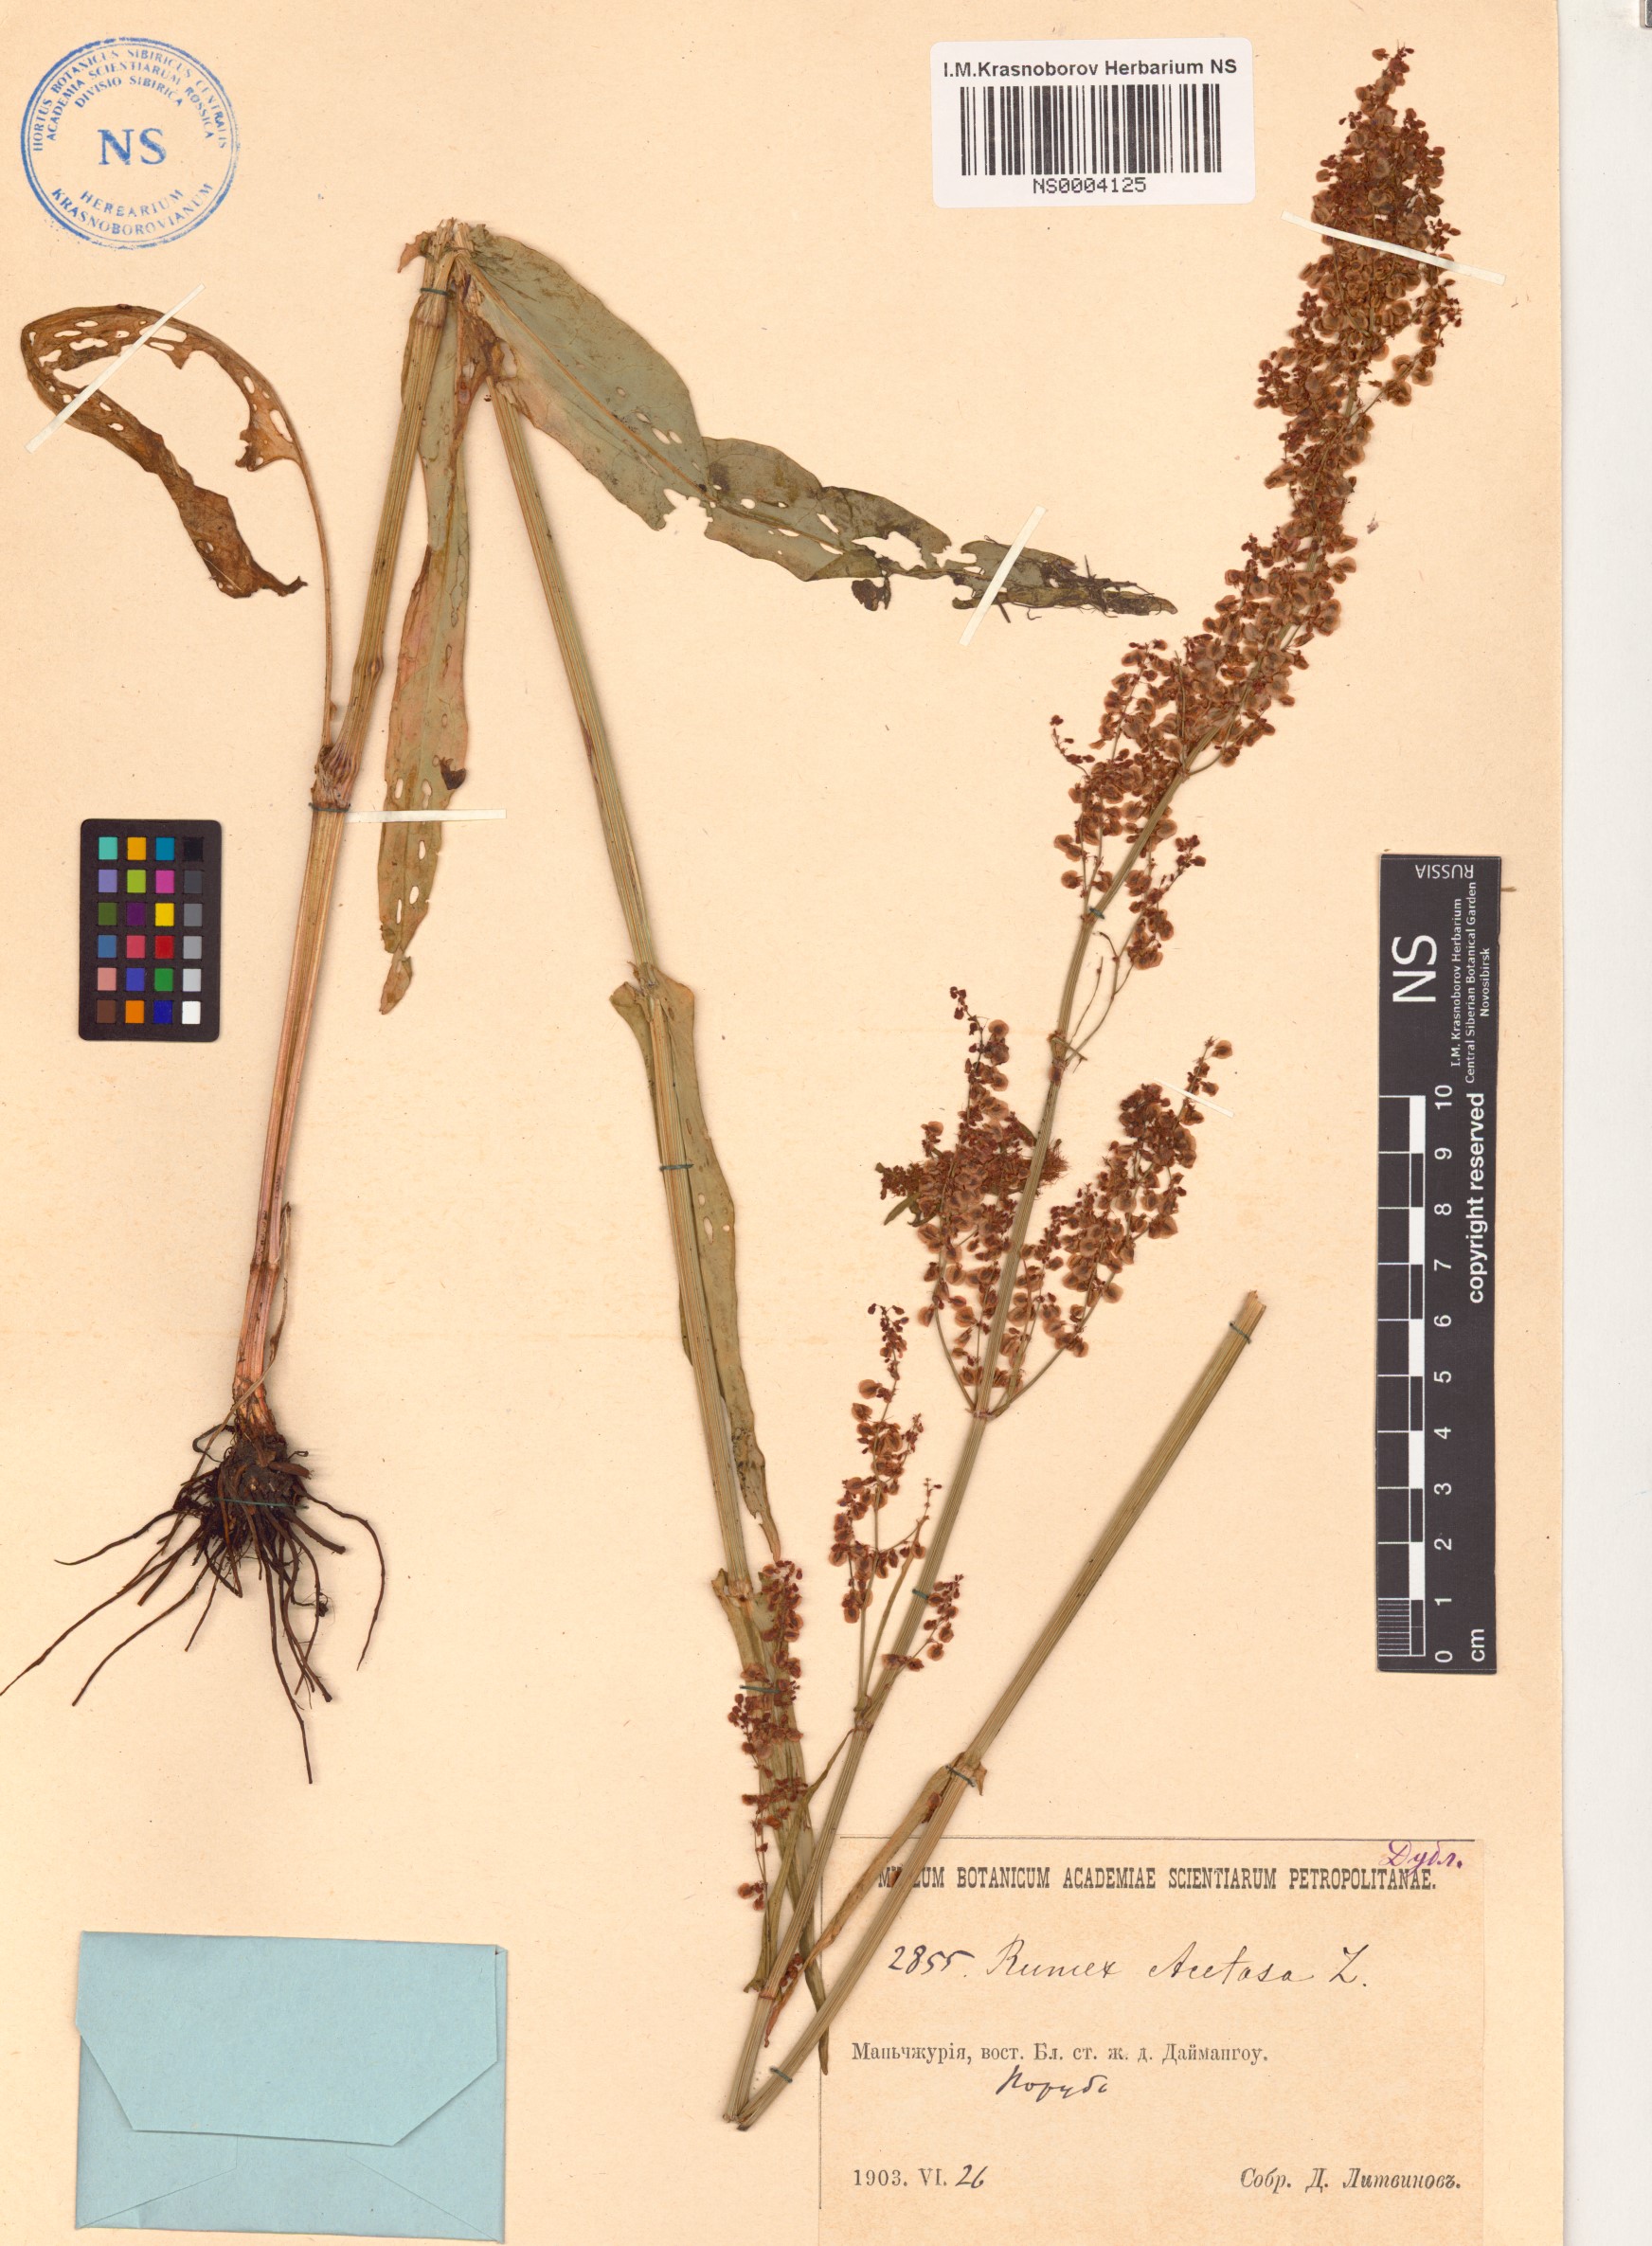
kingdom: Plantae
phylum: Tracheophyta
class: Magnoliopsida
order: Caryophyllales
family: Polygonaceae
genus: Rumex
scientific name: Rumex acetosa
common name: Garden sorrel
